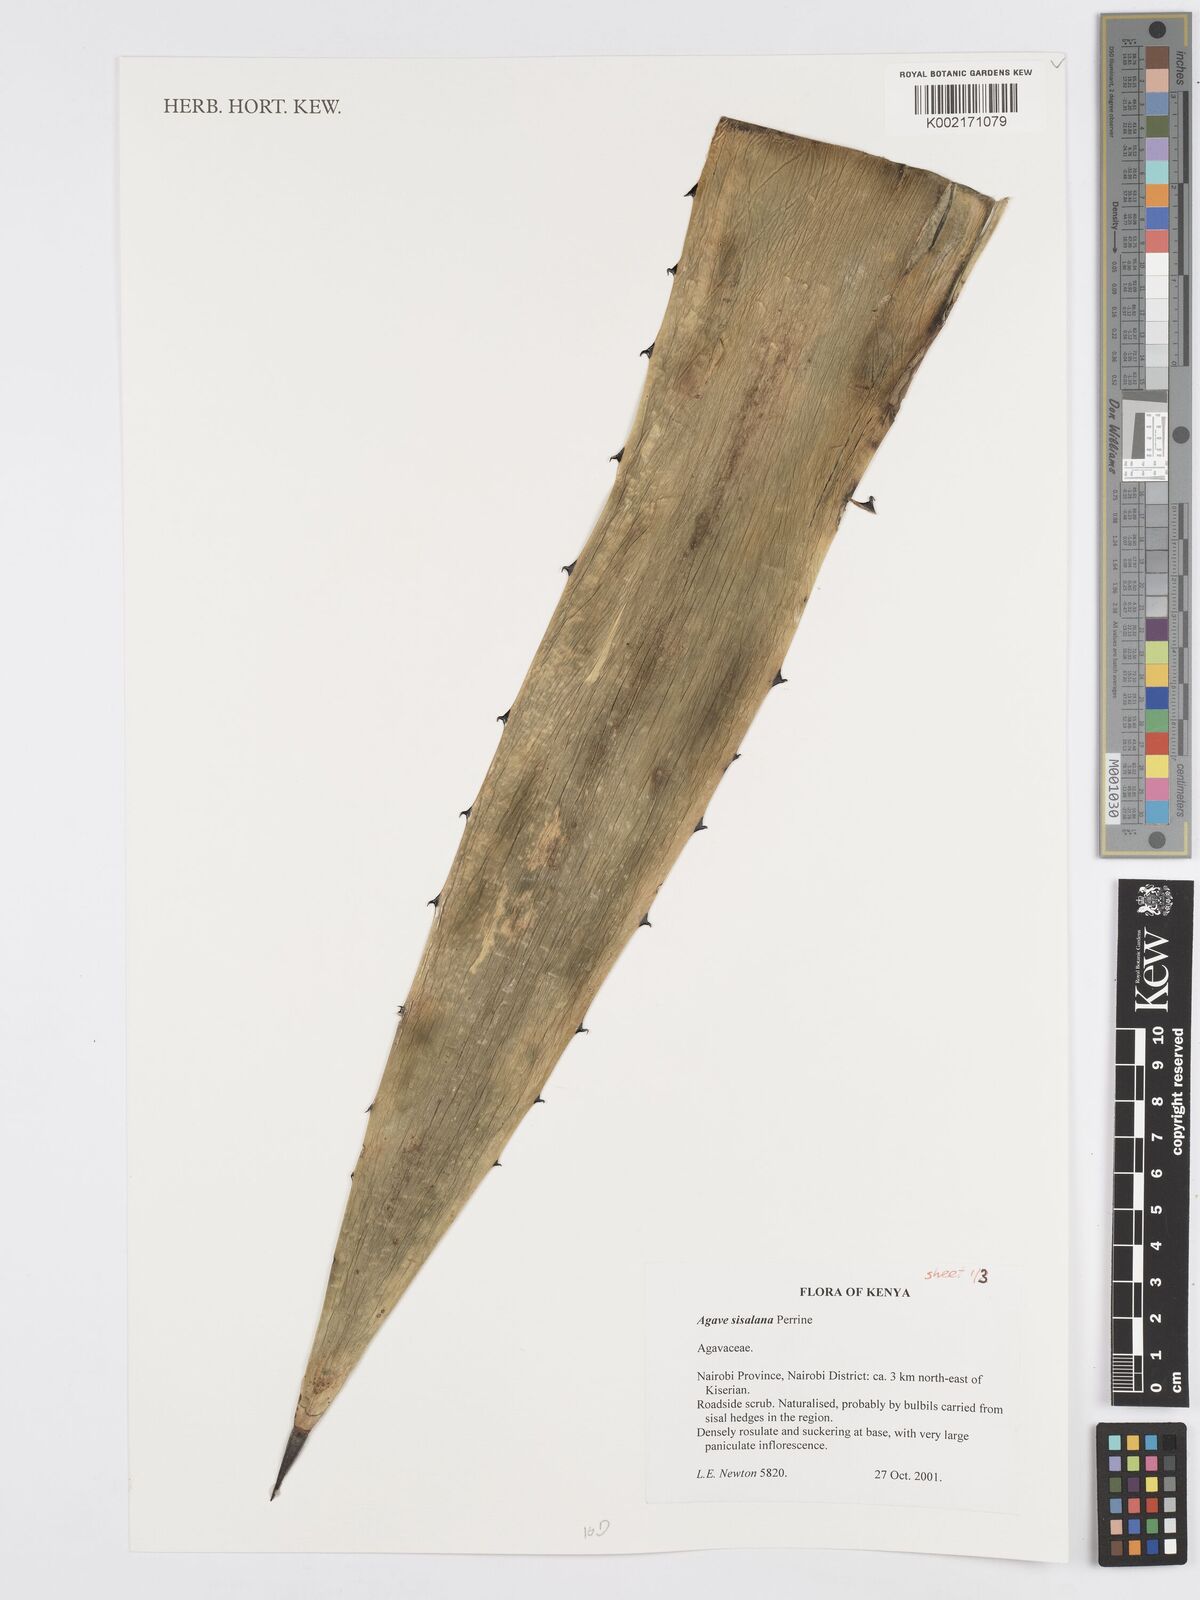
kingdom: Plantae
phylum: Tracheophyta
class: Liliopsida
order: Asparagales
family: Asparagaceae
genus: Agave
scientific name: Agave sisalana
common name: Sisal hemp
